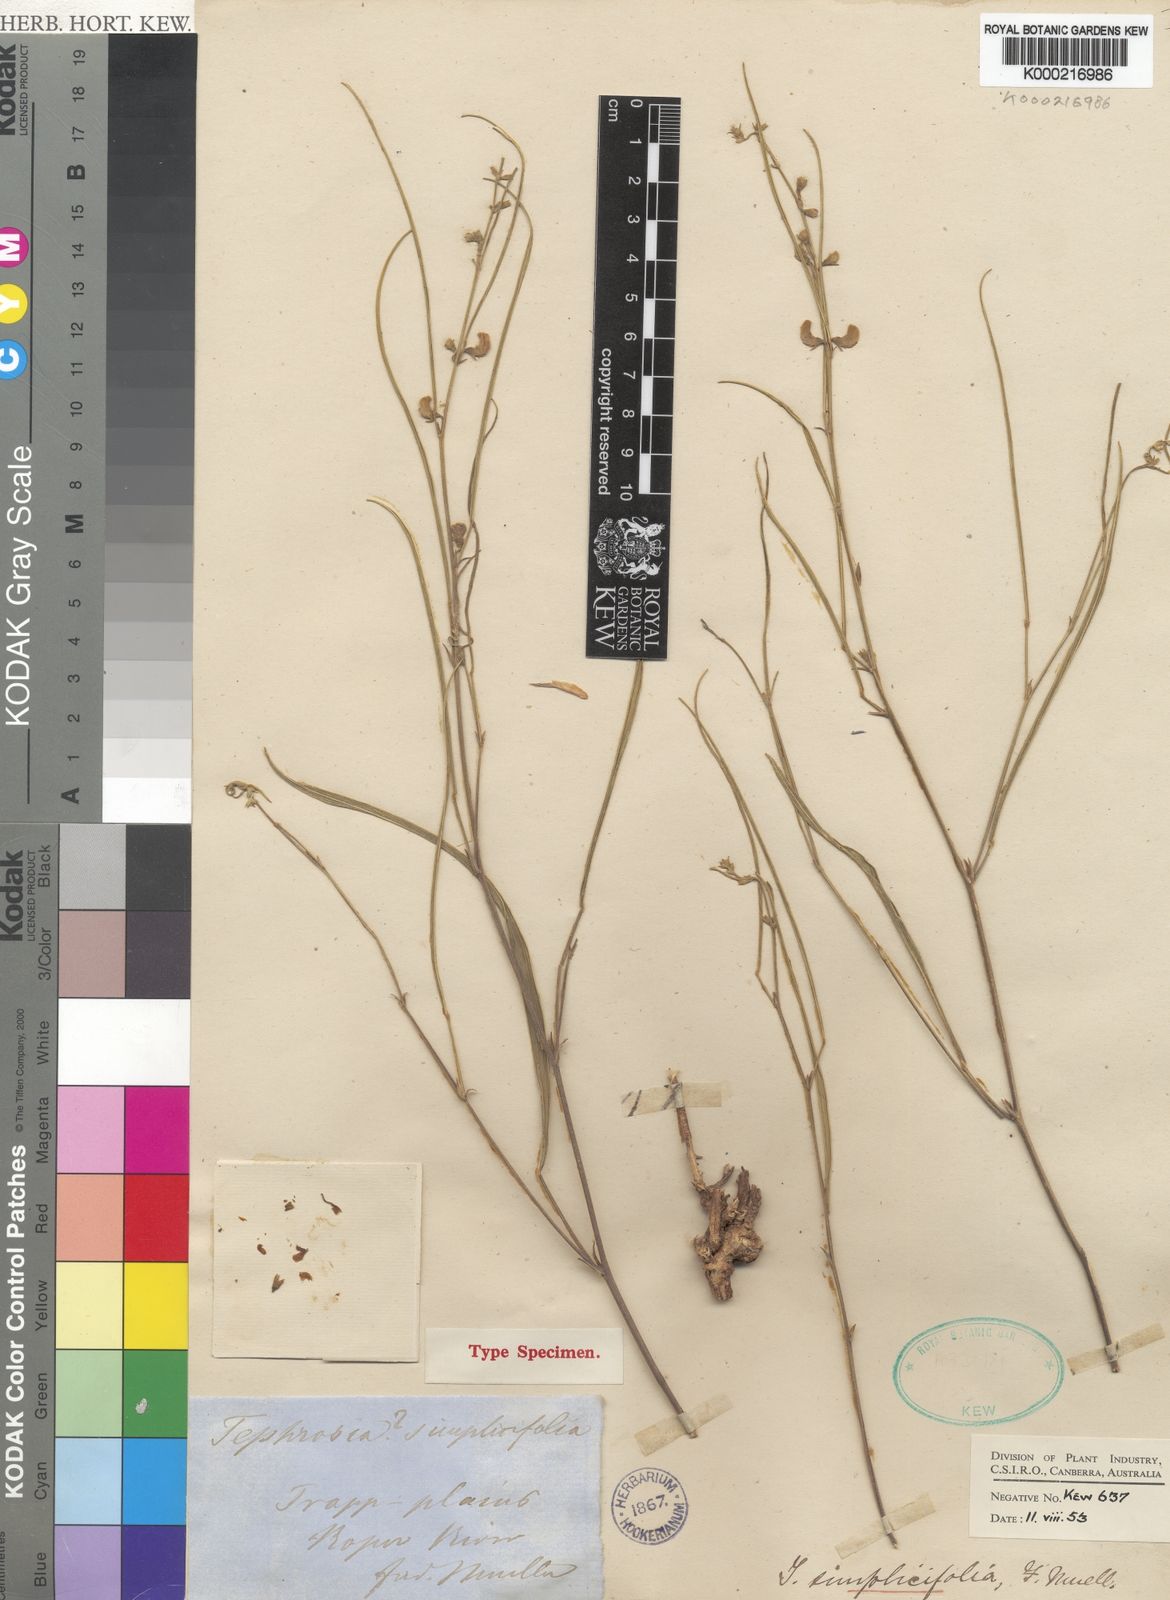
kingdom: Plantae
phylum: Tracheophyta
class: Magnoliopsida
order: Fabales
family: Fabaceae
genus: Tephrosia
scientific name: Tephrosia simplicifolia
